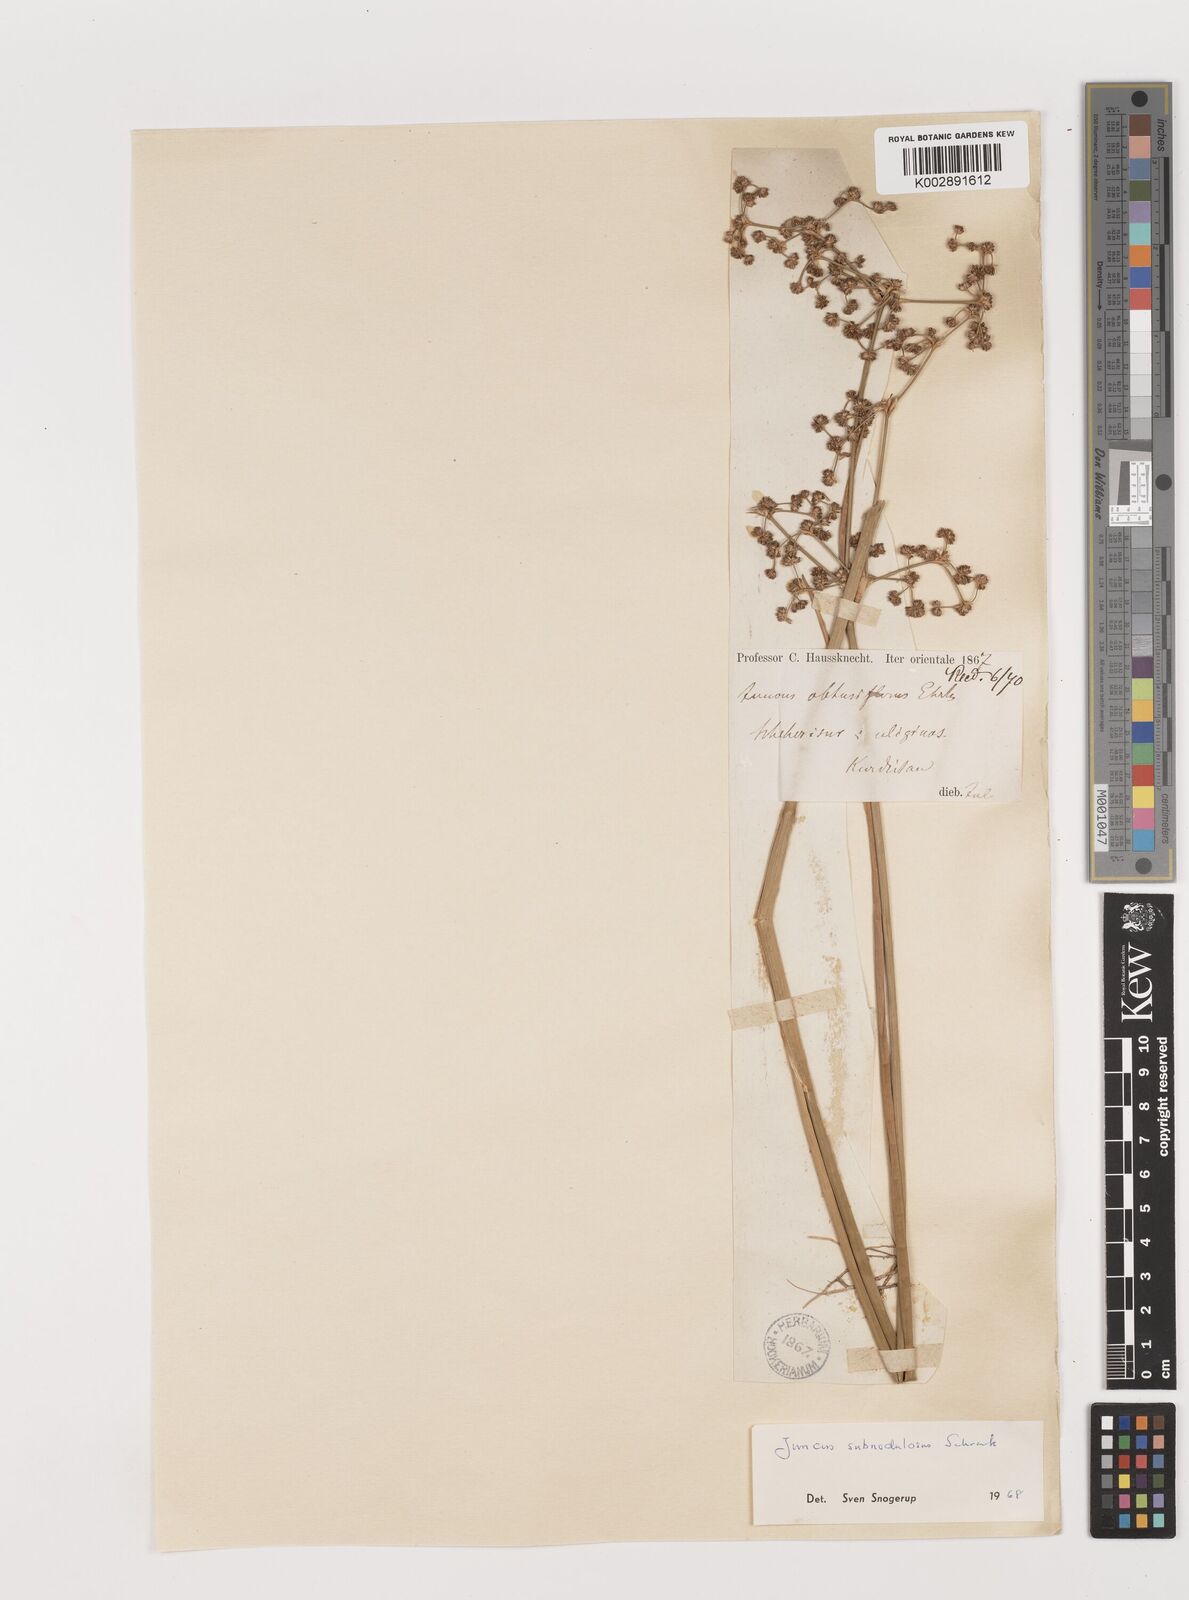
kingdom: Plantae
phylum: Tracheophyta
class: Liliopsida
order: Poales
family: Juncaceae
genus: Juncus
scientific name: Juncus subnodulosus
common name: Blunt-flowered rush
